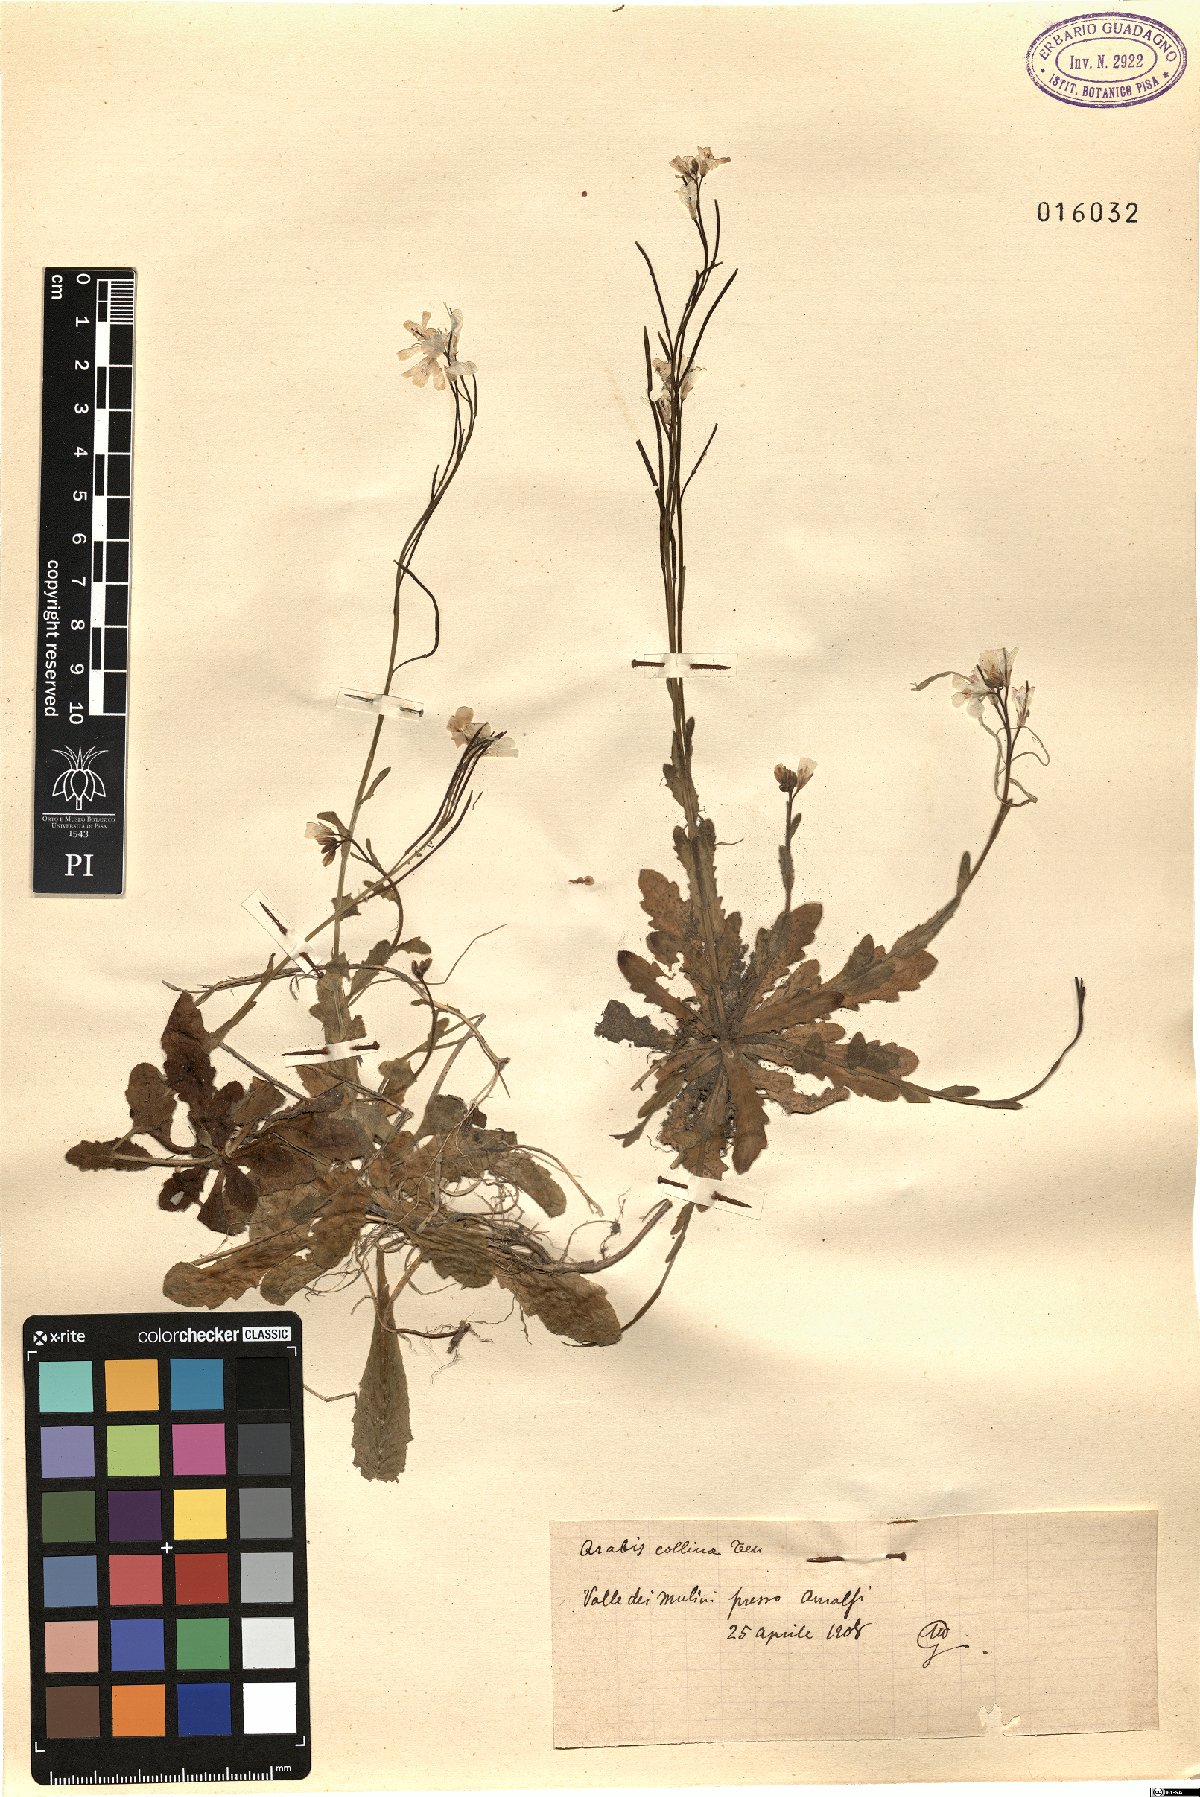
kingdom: Plantae
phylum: Tracheophyta
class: Magnoliopsida
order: Brassicales
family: Brassicaceae
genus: Arabis
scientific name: Arabis collina
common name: Rosy cress
